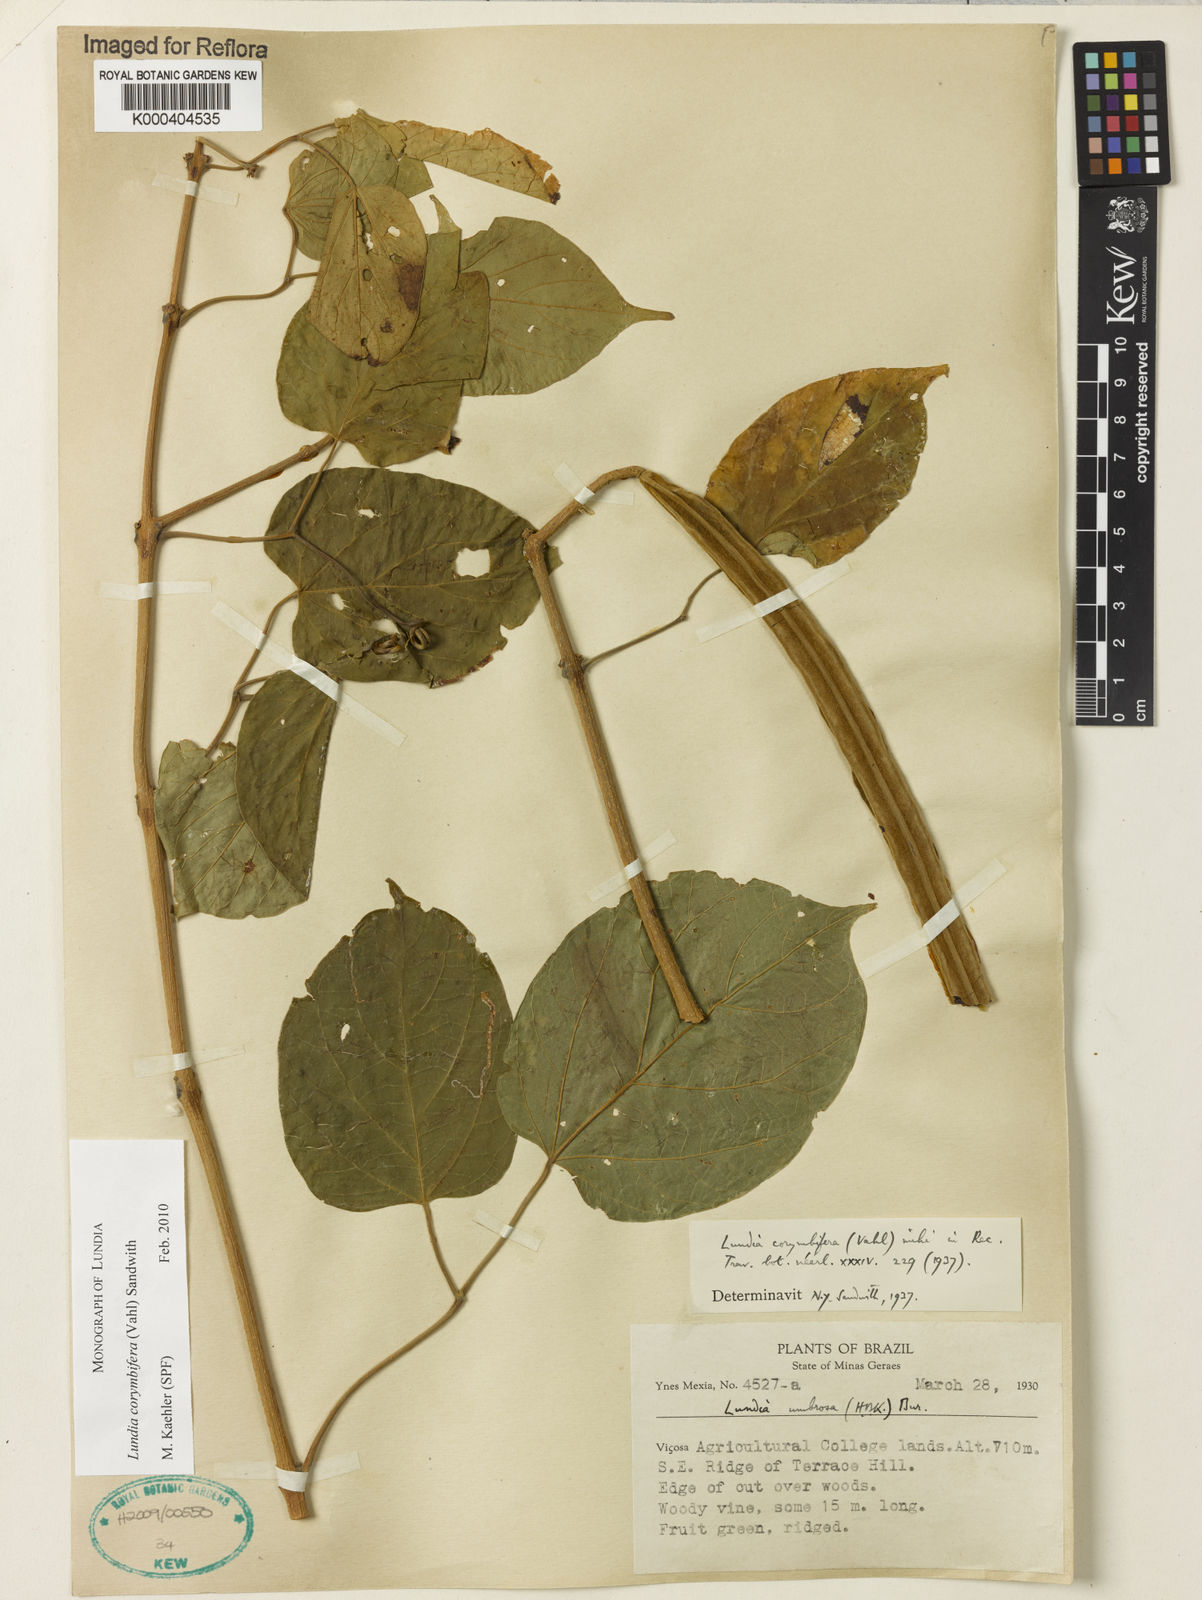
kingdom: Plantae
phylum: Tracheophyta
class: Magnoliopsida
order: Lamiales
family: Bignoniaceae
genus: Lundia
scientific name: Lundia corymbifera
